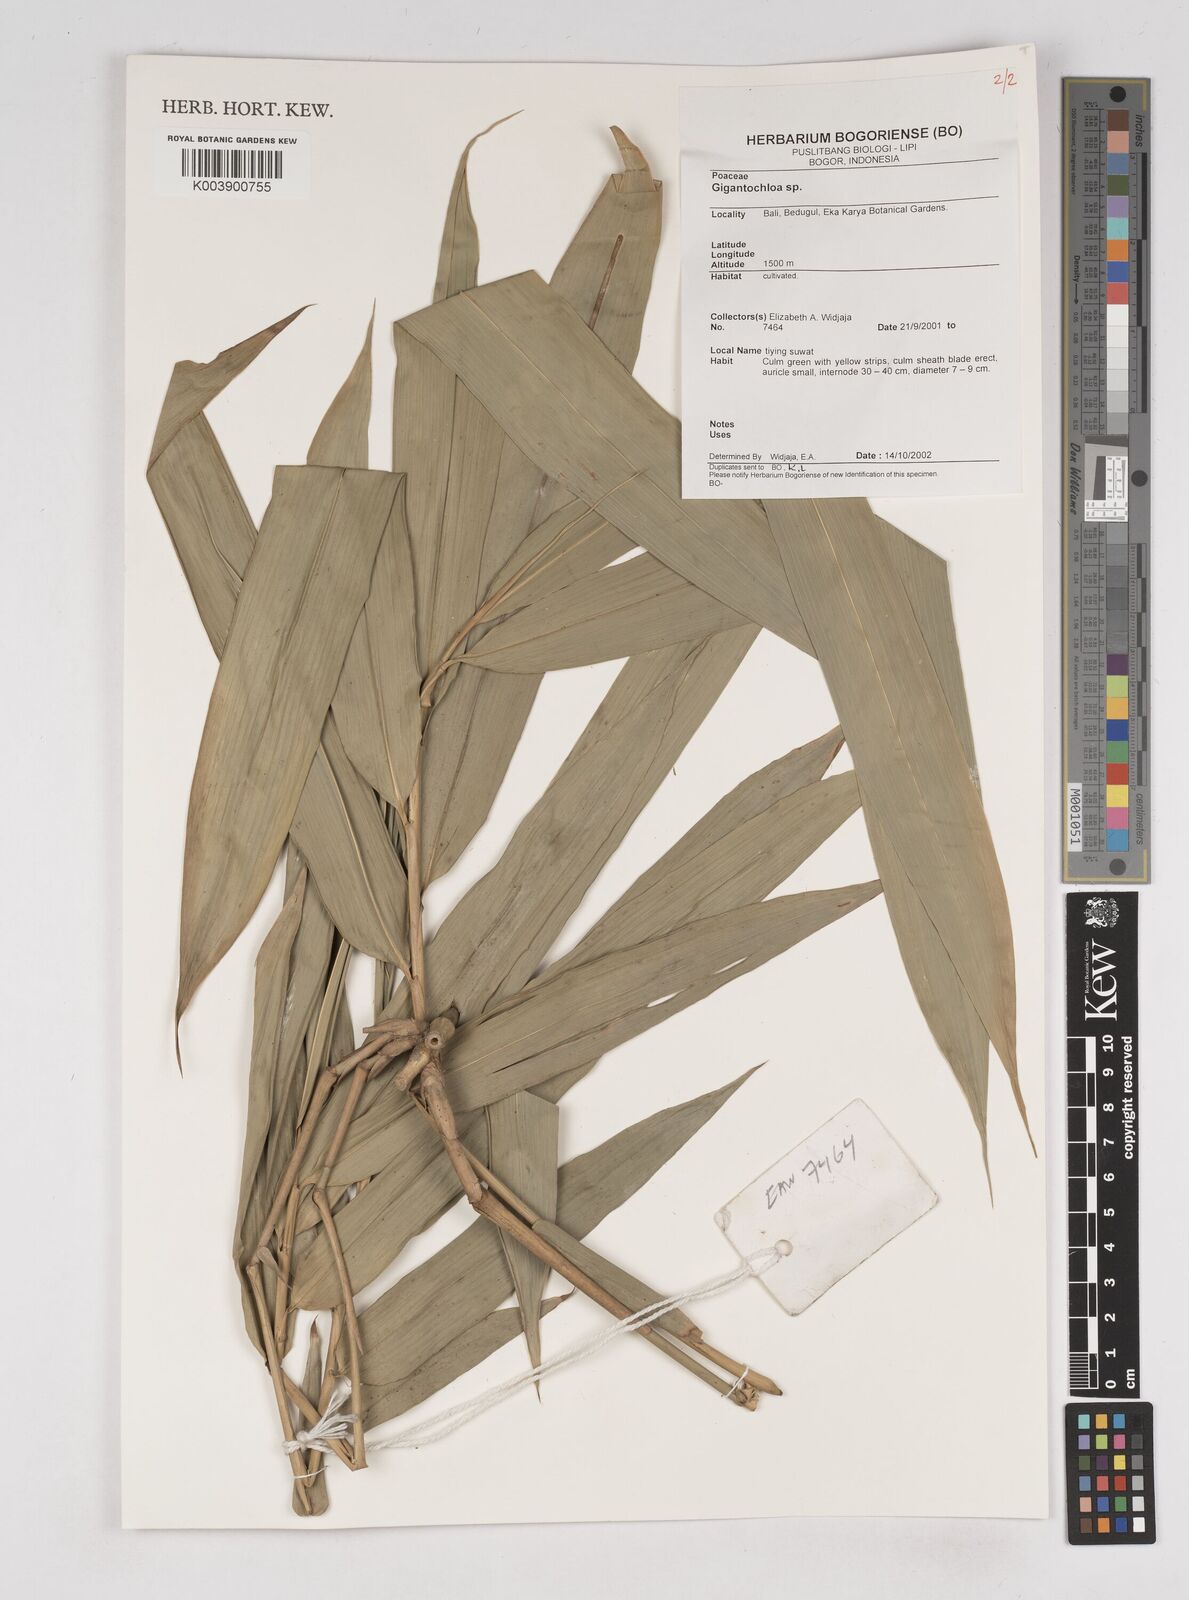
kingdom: Plantae
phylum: Tracheophyta
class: Liliopsida
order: Poales
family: Poaceae
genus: Gigantochloa
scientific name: Gigantochloa
